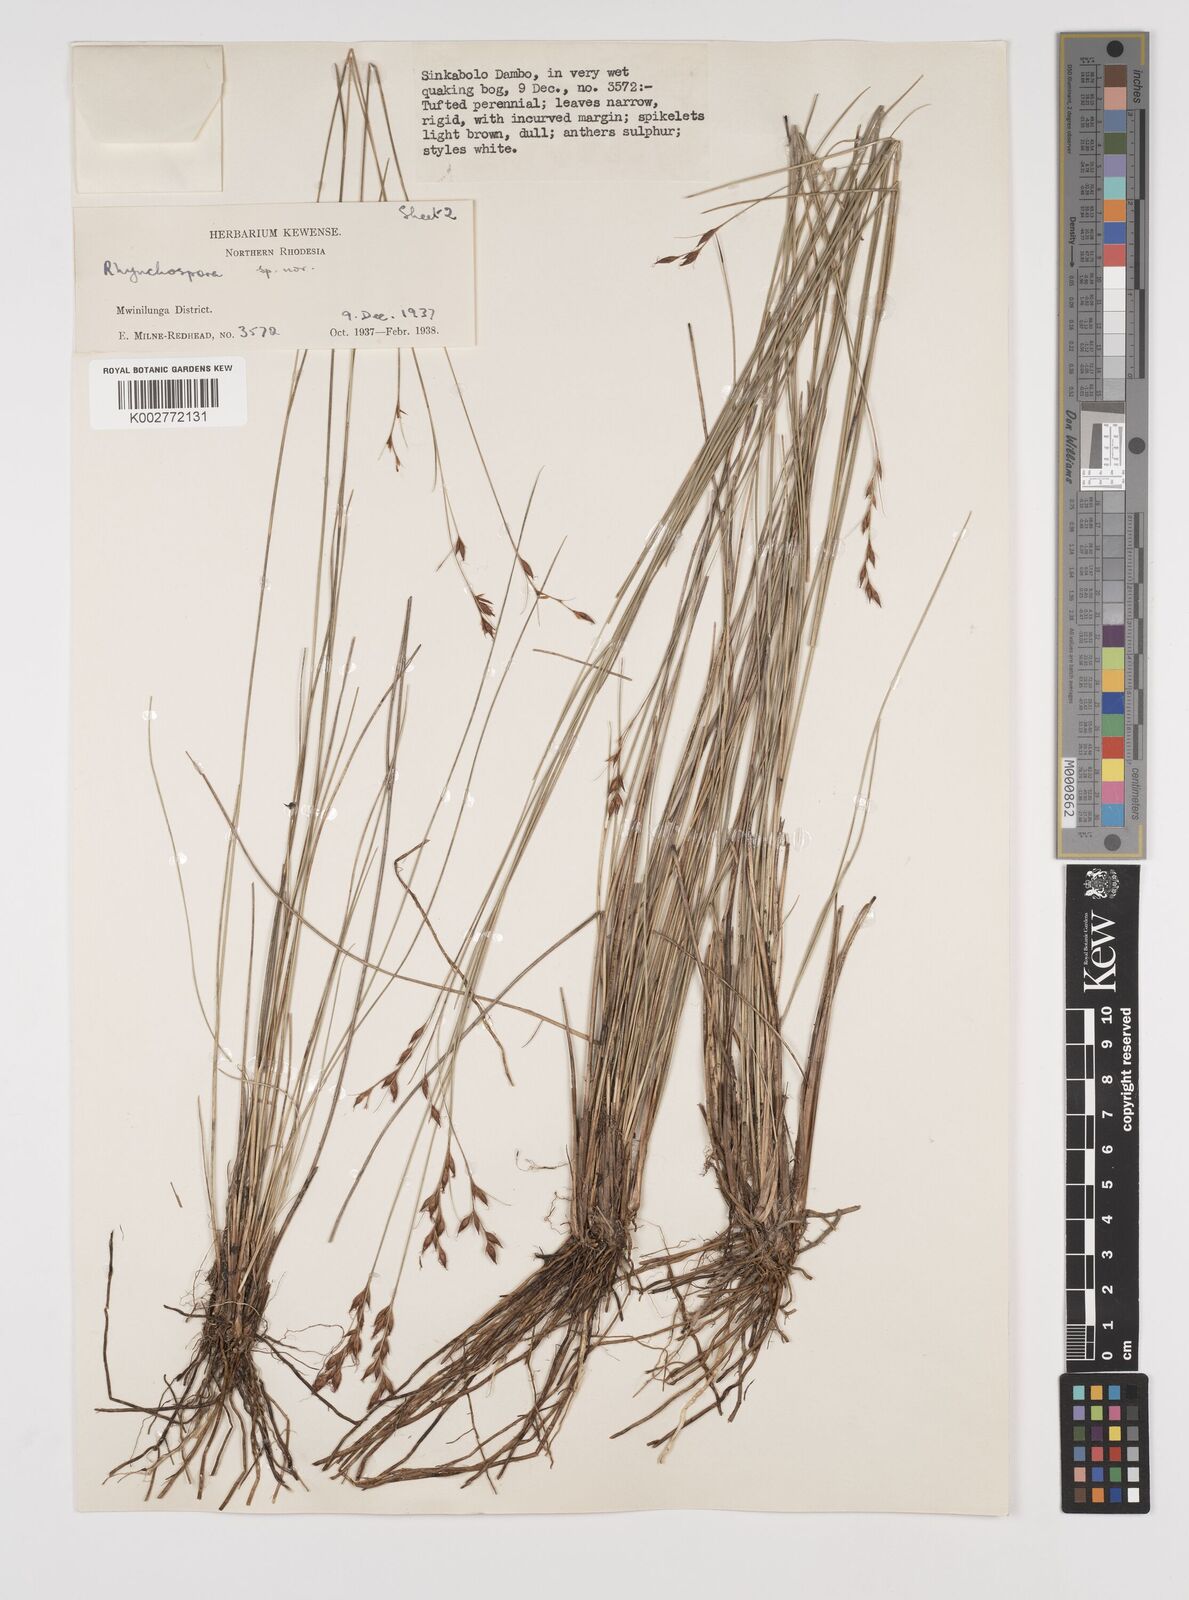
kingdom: Plantae
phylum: Tracheophyta
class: Liliopsida
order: Poales
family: Cyperaceae
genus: Rhynchospora
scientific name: Rhynchospora
